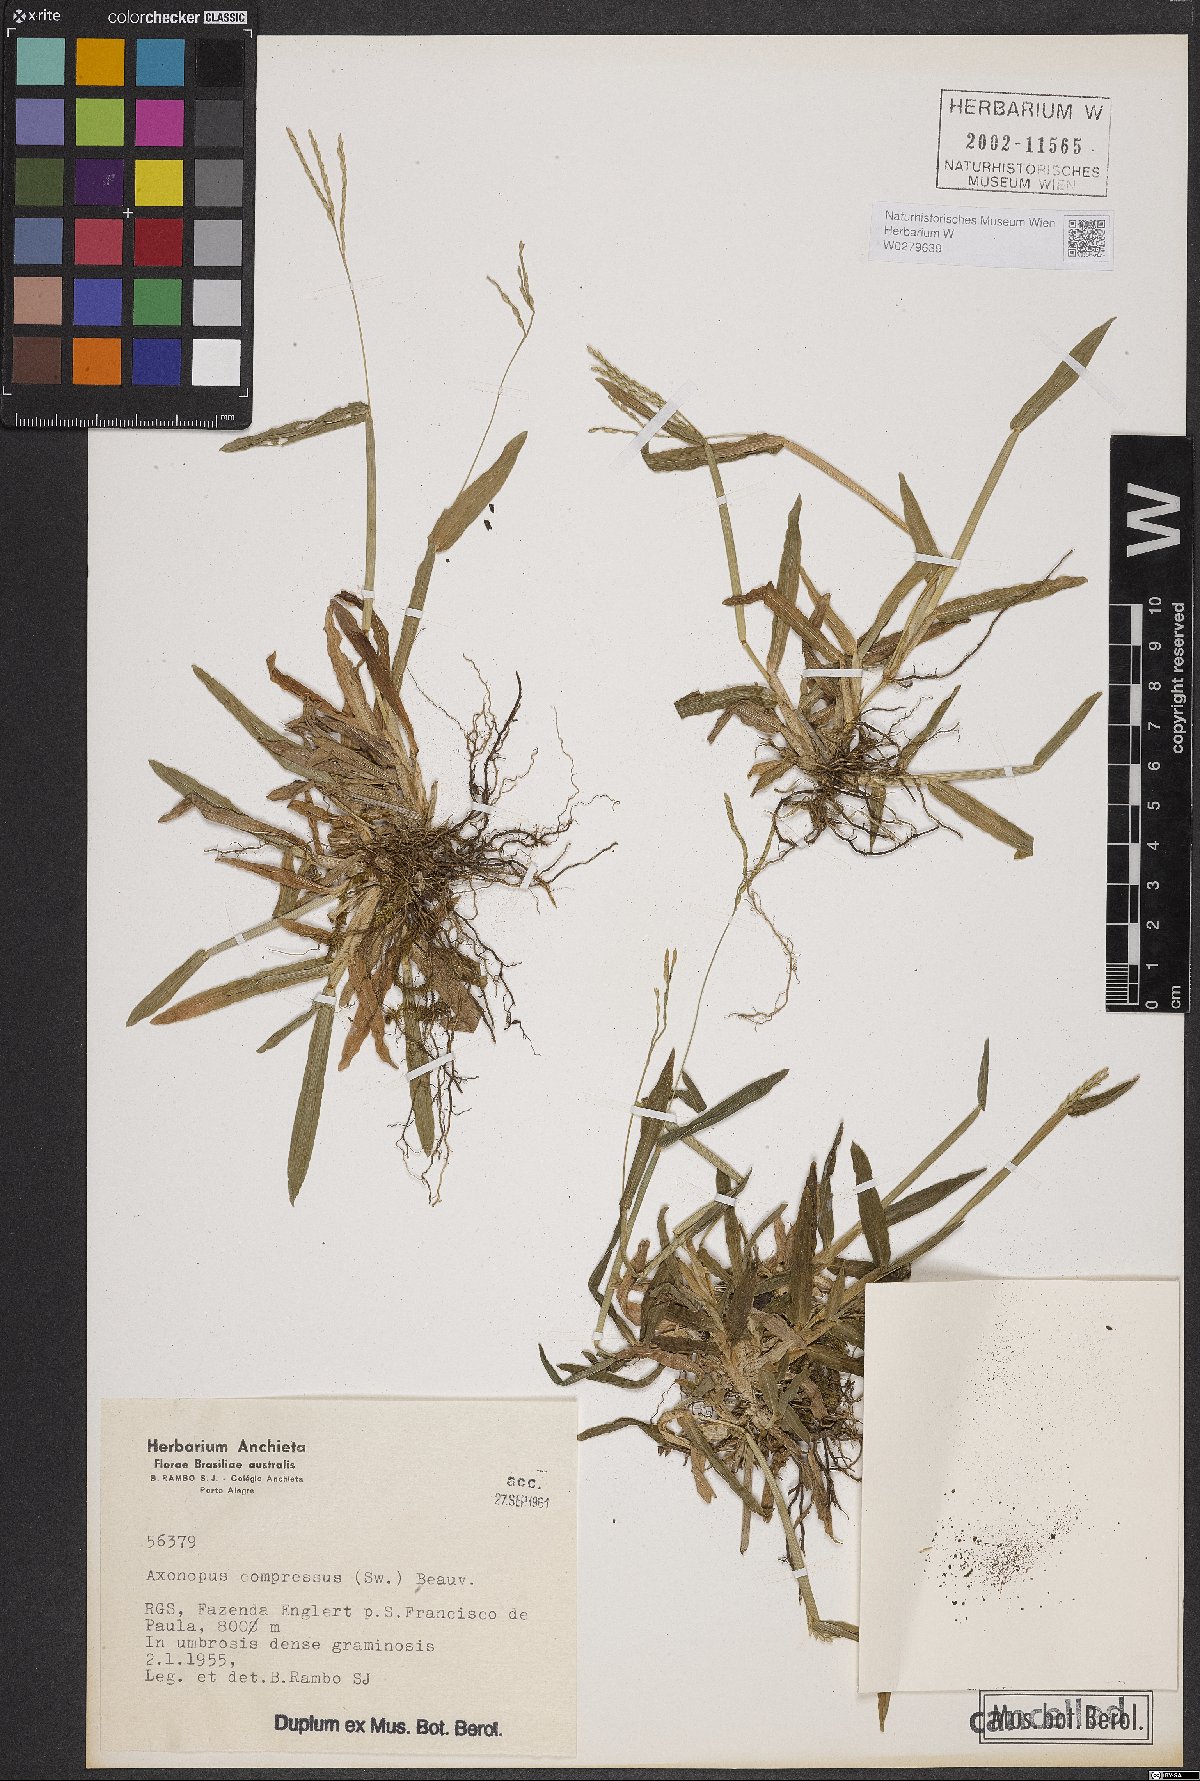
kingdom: Plantae
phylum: Tracheophyta
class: Liliopsida
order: Poales
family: Poaceae
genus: Axonopus
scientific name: Axonopus compressus
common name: American carpet grass
